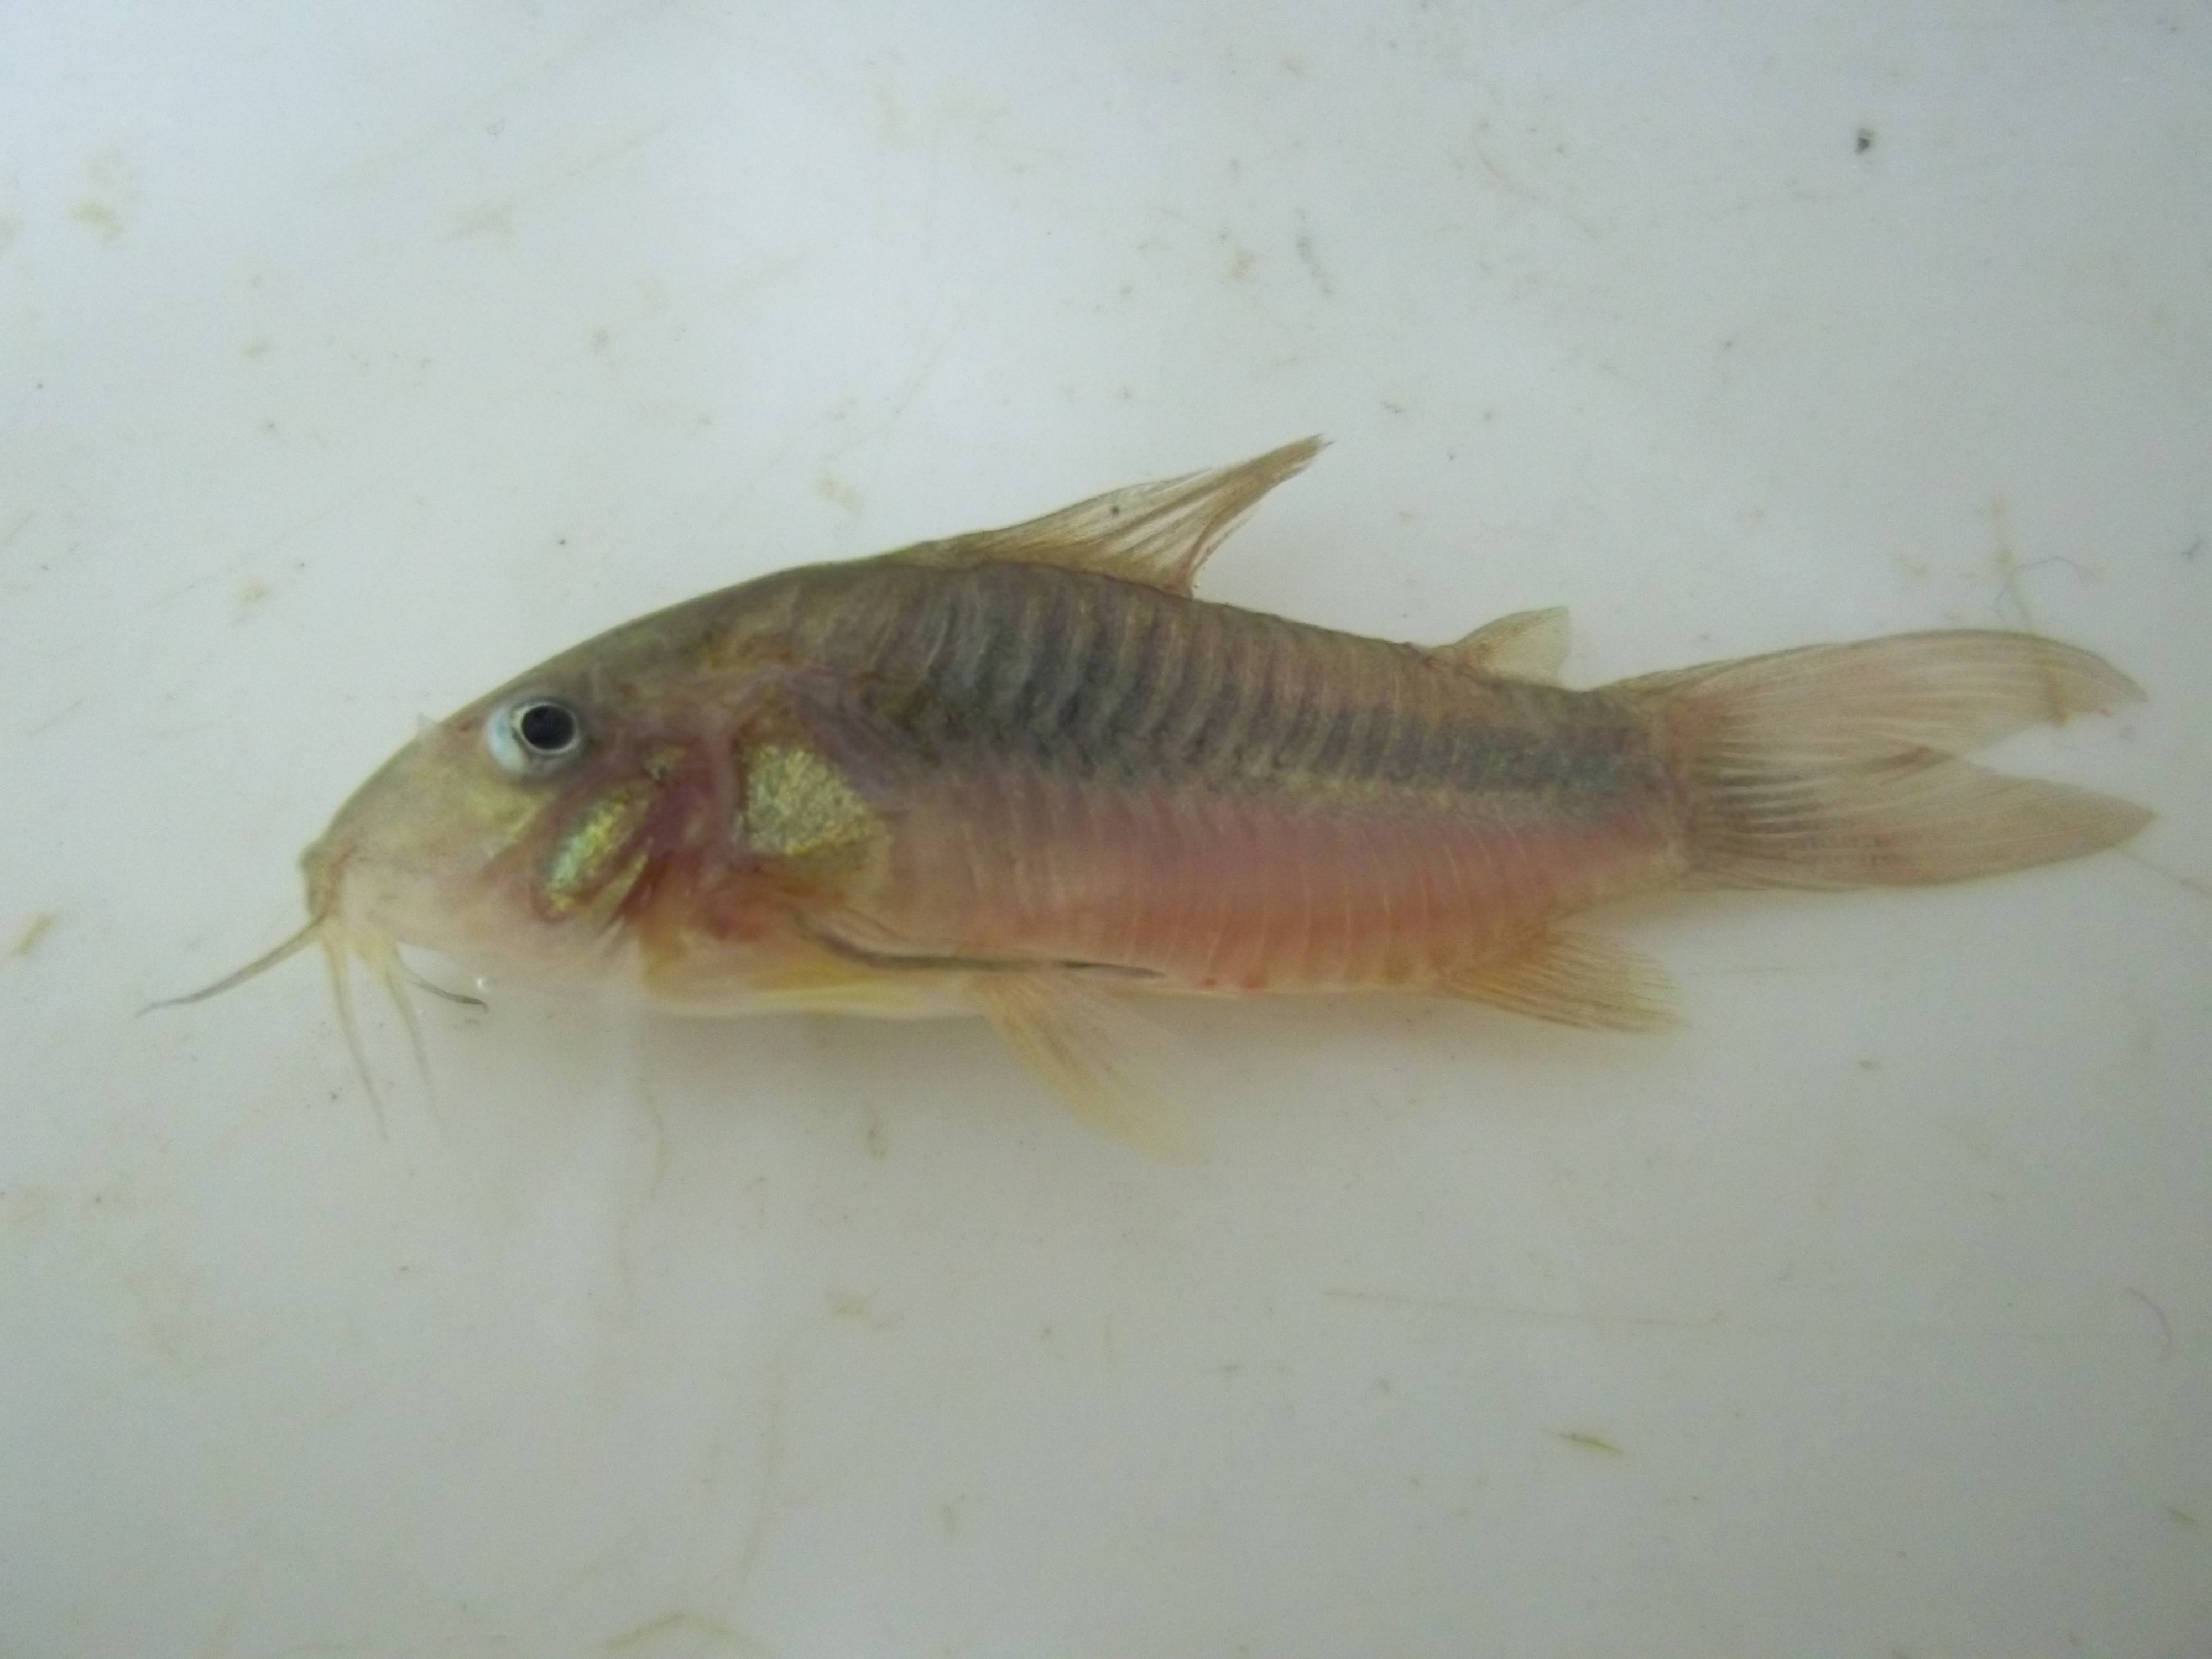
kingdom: Animalia
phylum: Chordata
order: Siluriformes
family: Callichthyidae
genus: Corydoras
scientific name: Corydoras aeneus
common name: Bronze catfish
